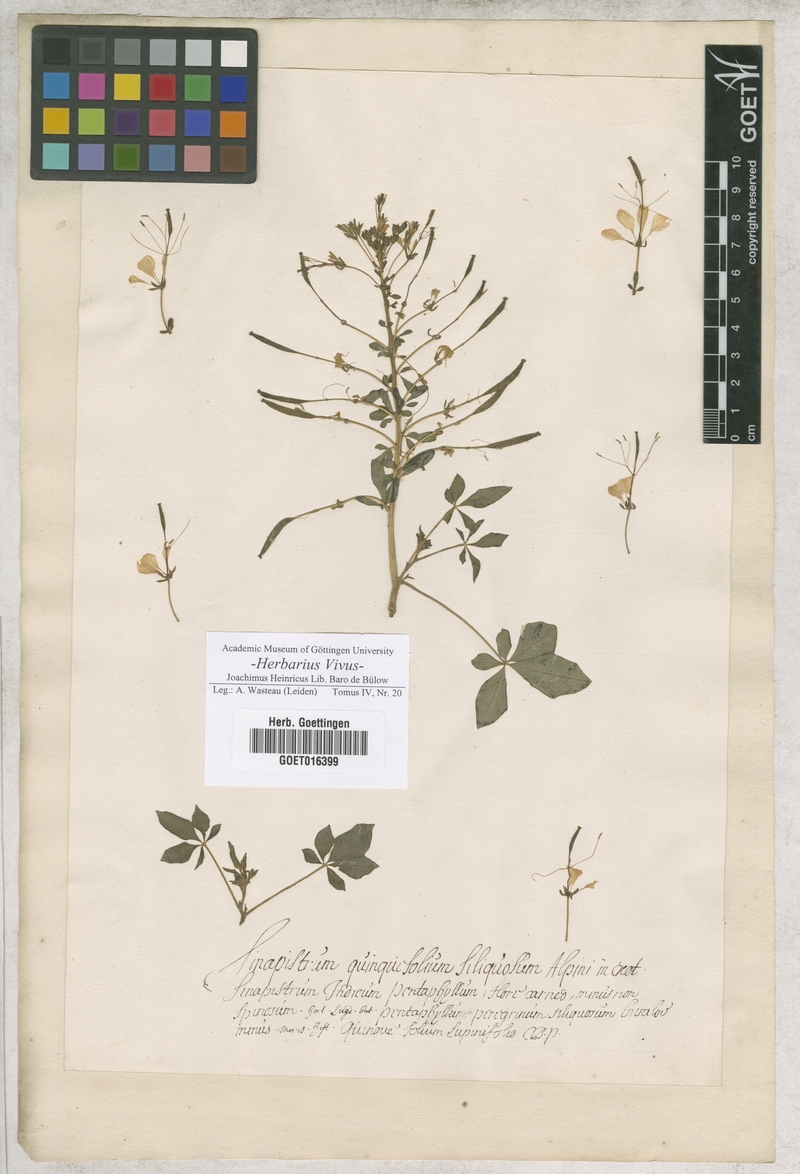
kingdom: Plantae
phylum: Tracheophyta
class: Magnoliopsida
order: Brassicales
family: Cleomaceae
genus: Gynandropsis
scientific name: Gynandropsis gynandra
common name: Spiderwisp
